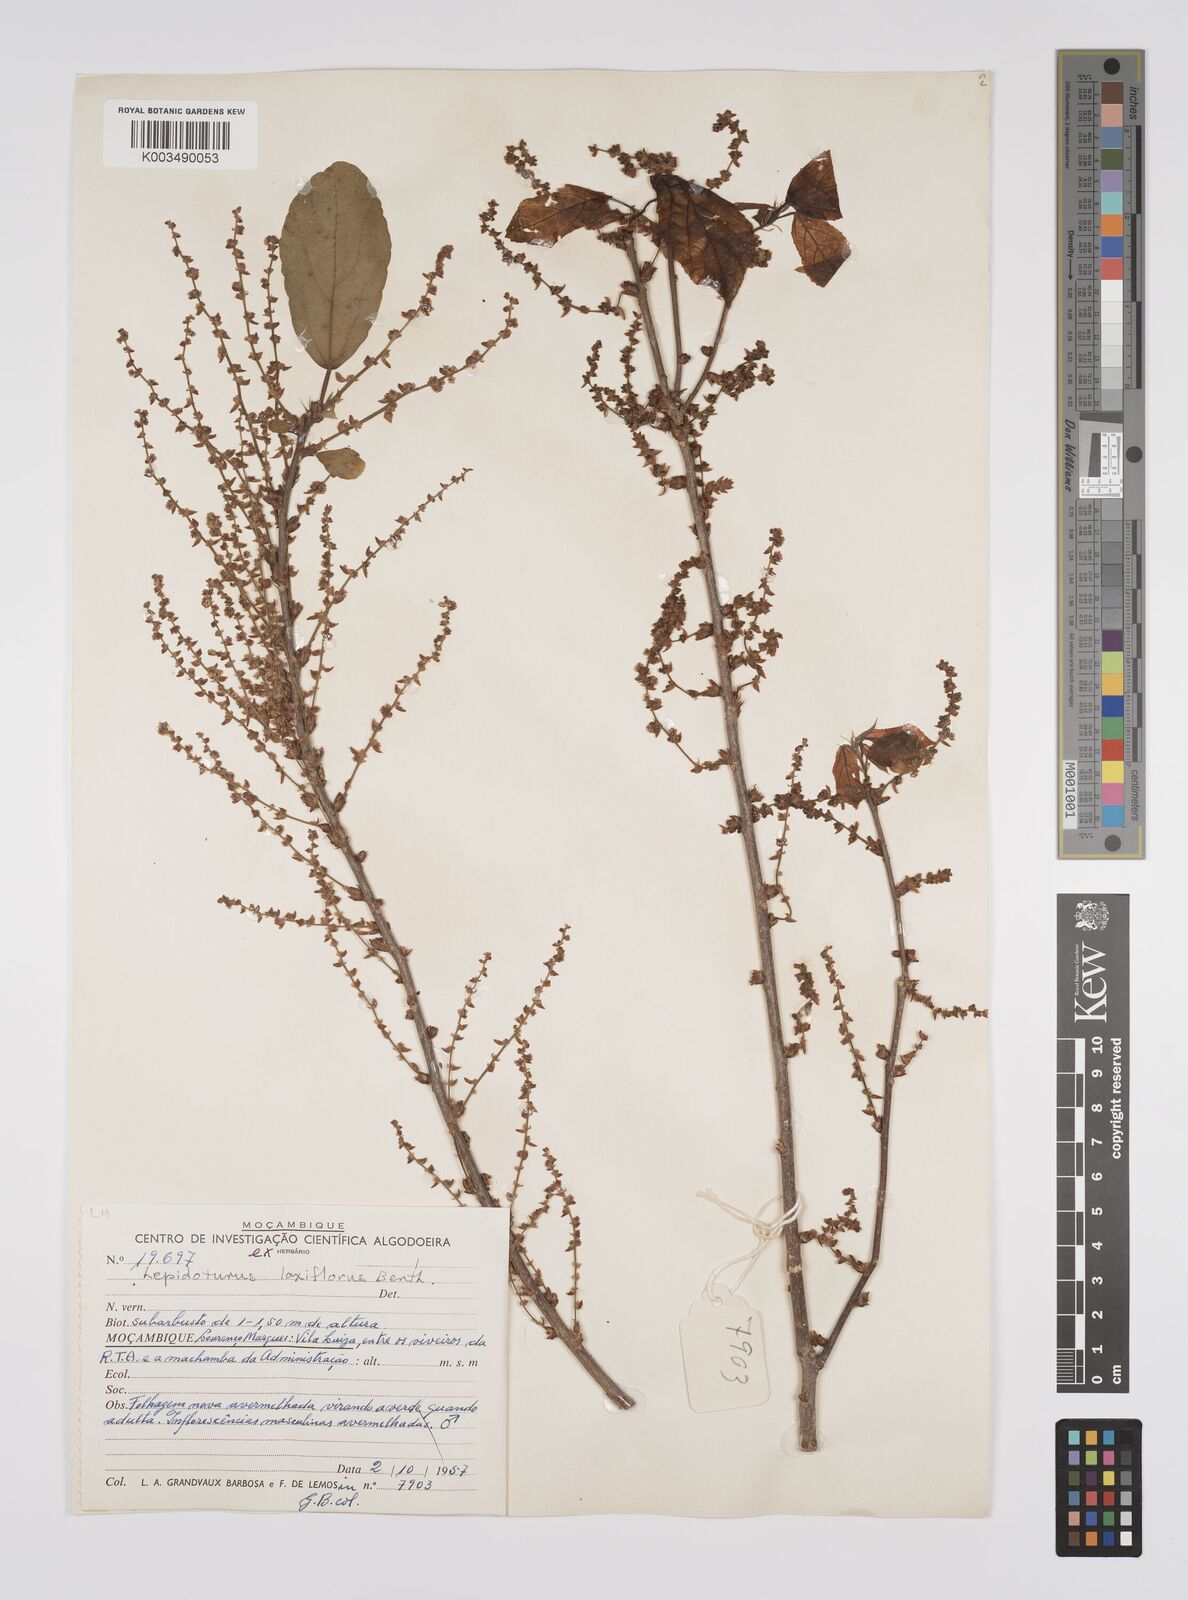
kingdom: Plantae
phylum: Tracheophyta
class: Magnoliopsida
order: Malpighiales
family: Euphorbiaceae
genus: Alchornea
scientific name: Alchornea laxiflora
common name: Lowveld bead-string
